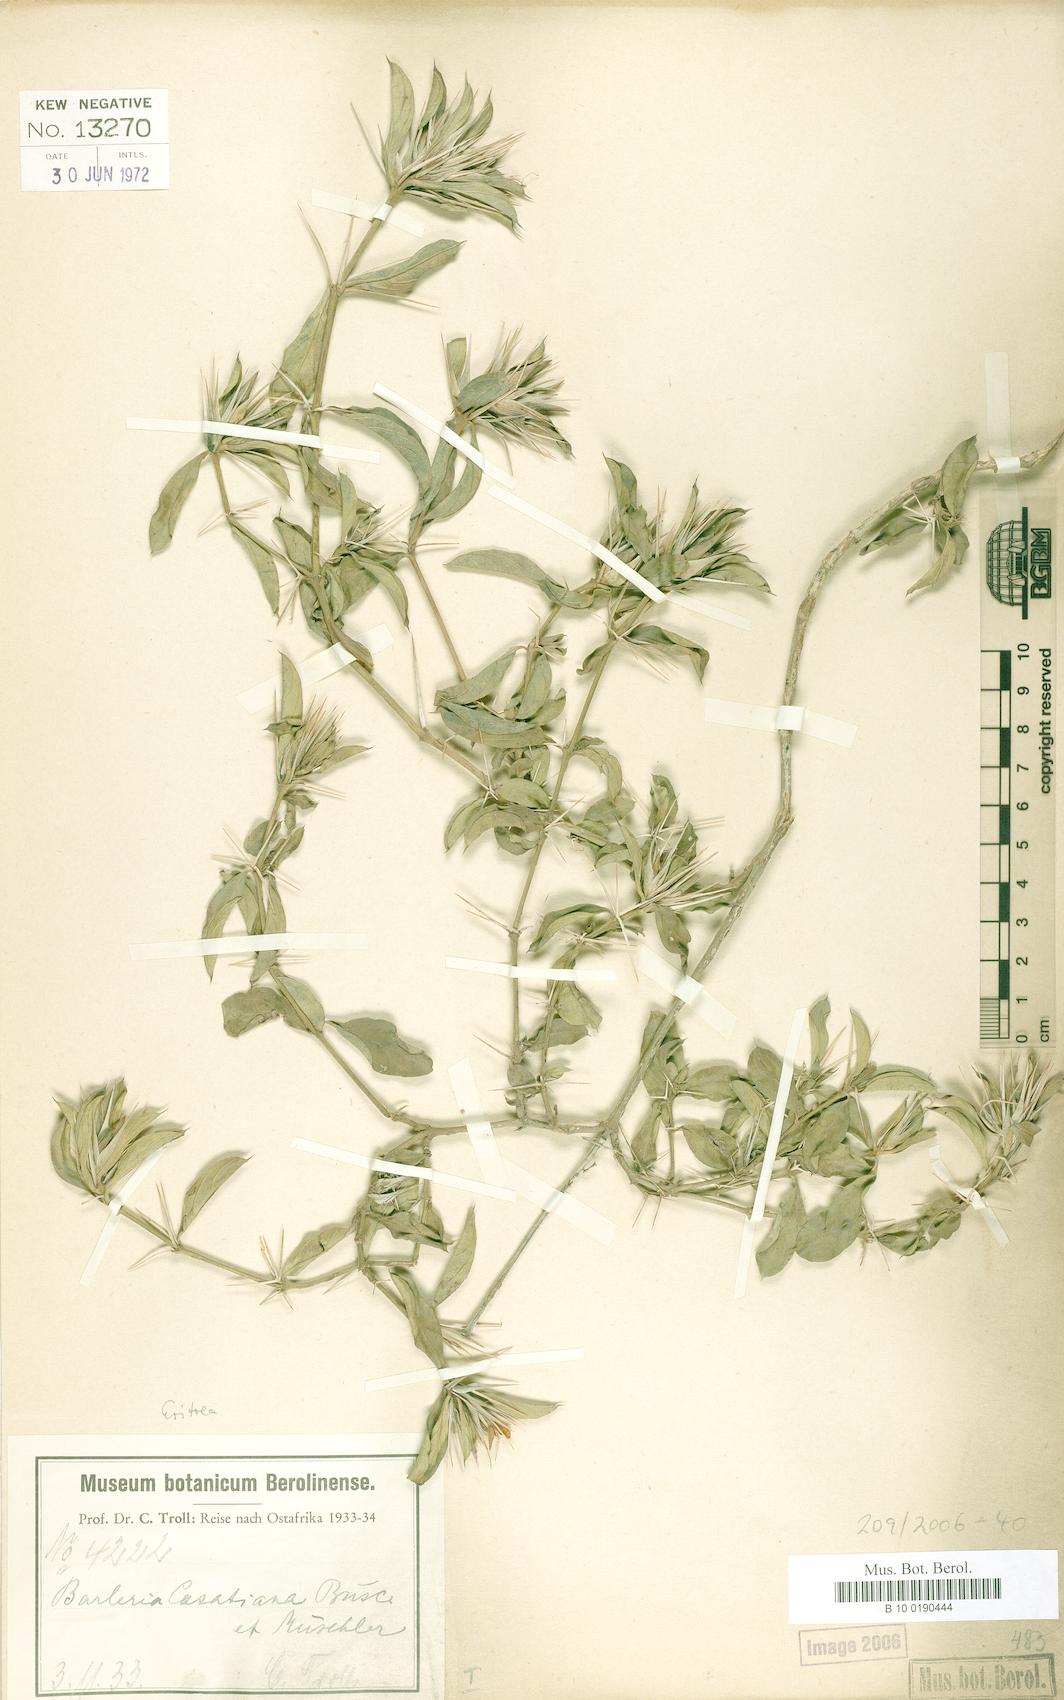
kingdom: Plantae
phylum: Tracheophyta
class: Magnoliopsida
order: Lamiales
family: Acanthaceae
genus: Barleria
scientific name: Barleria casatiana
